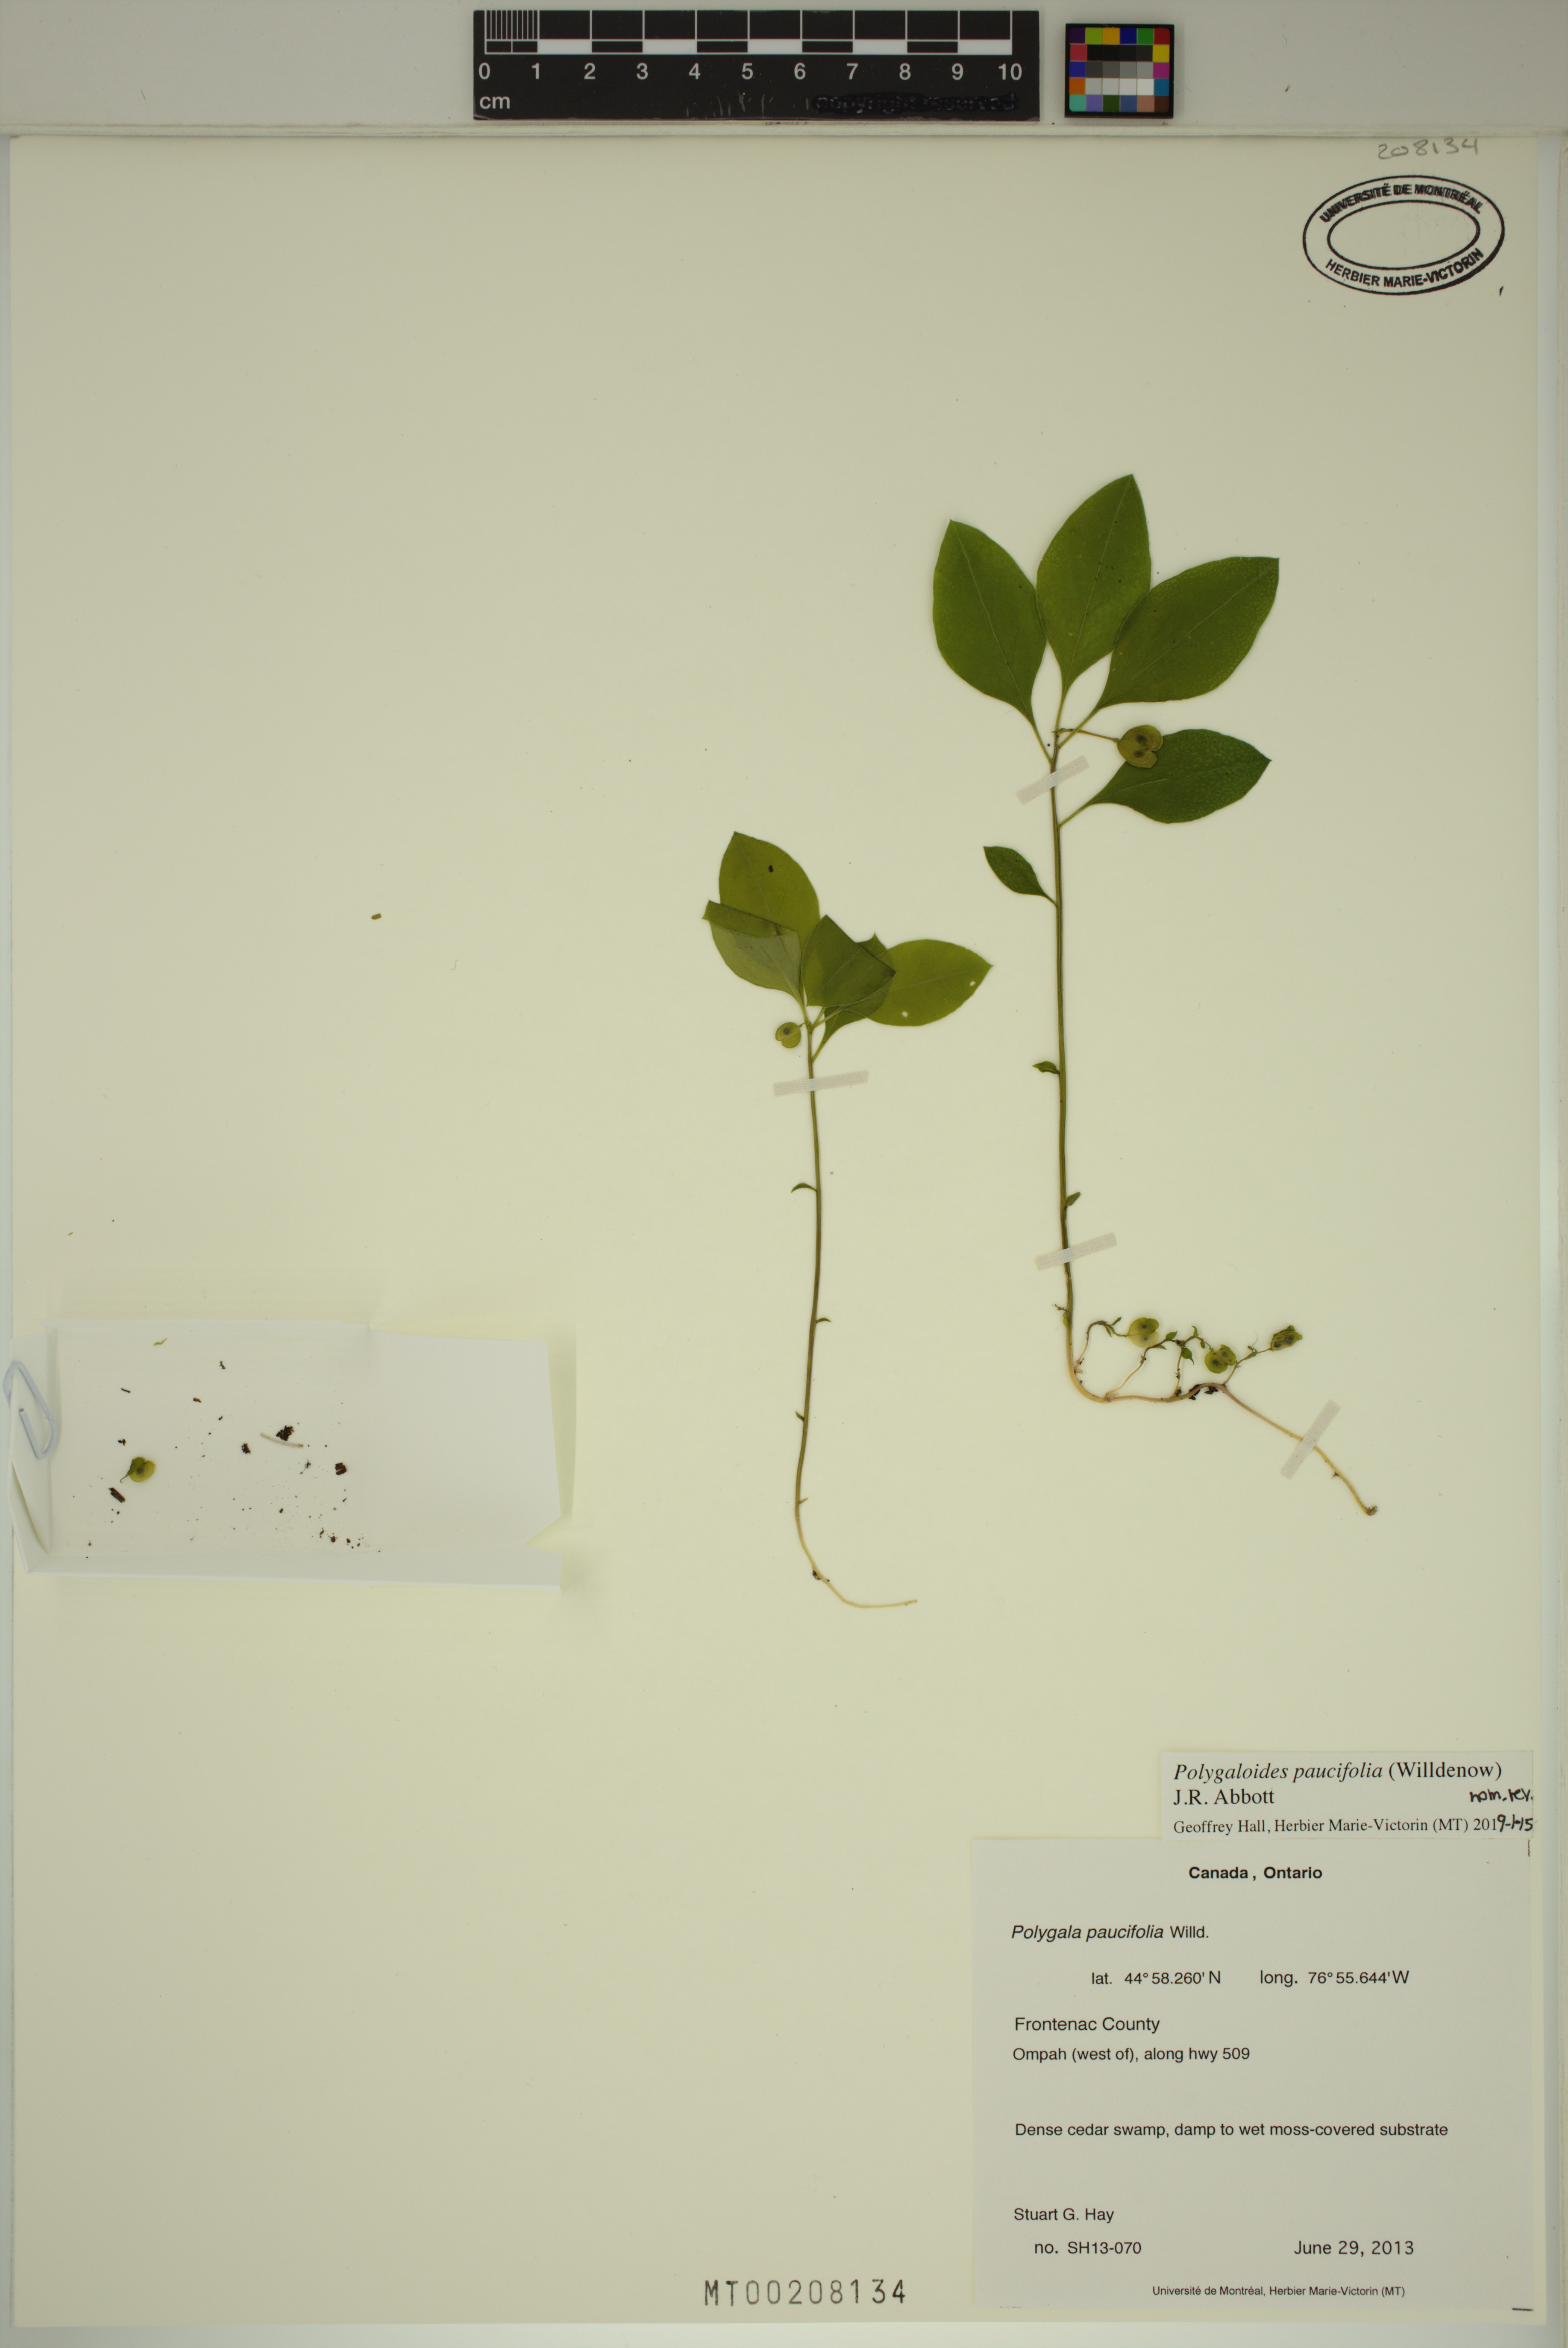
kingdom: Plantae
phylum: Tracheophyta
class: Magnoliopsida
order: Fabales
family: Polygalaceae
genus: Polygaloides
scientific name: Polygaloides paucifolia
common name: Bird-on-the-wing
